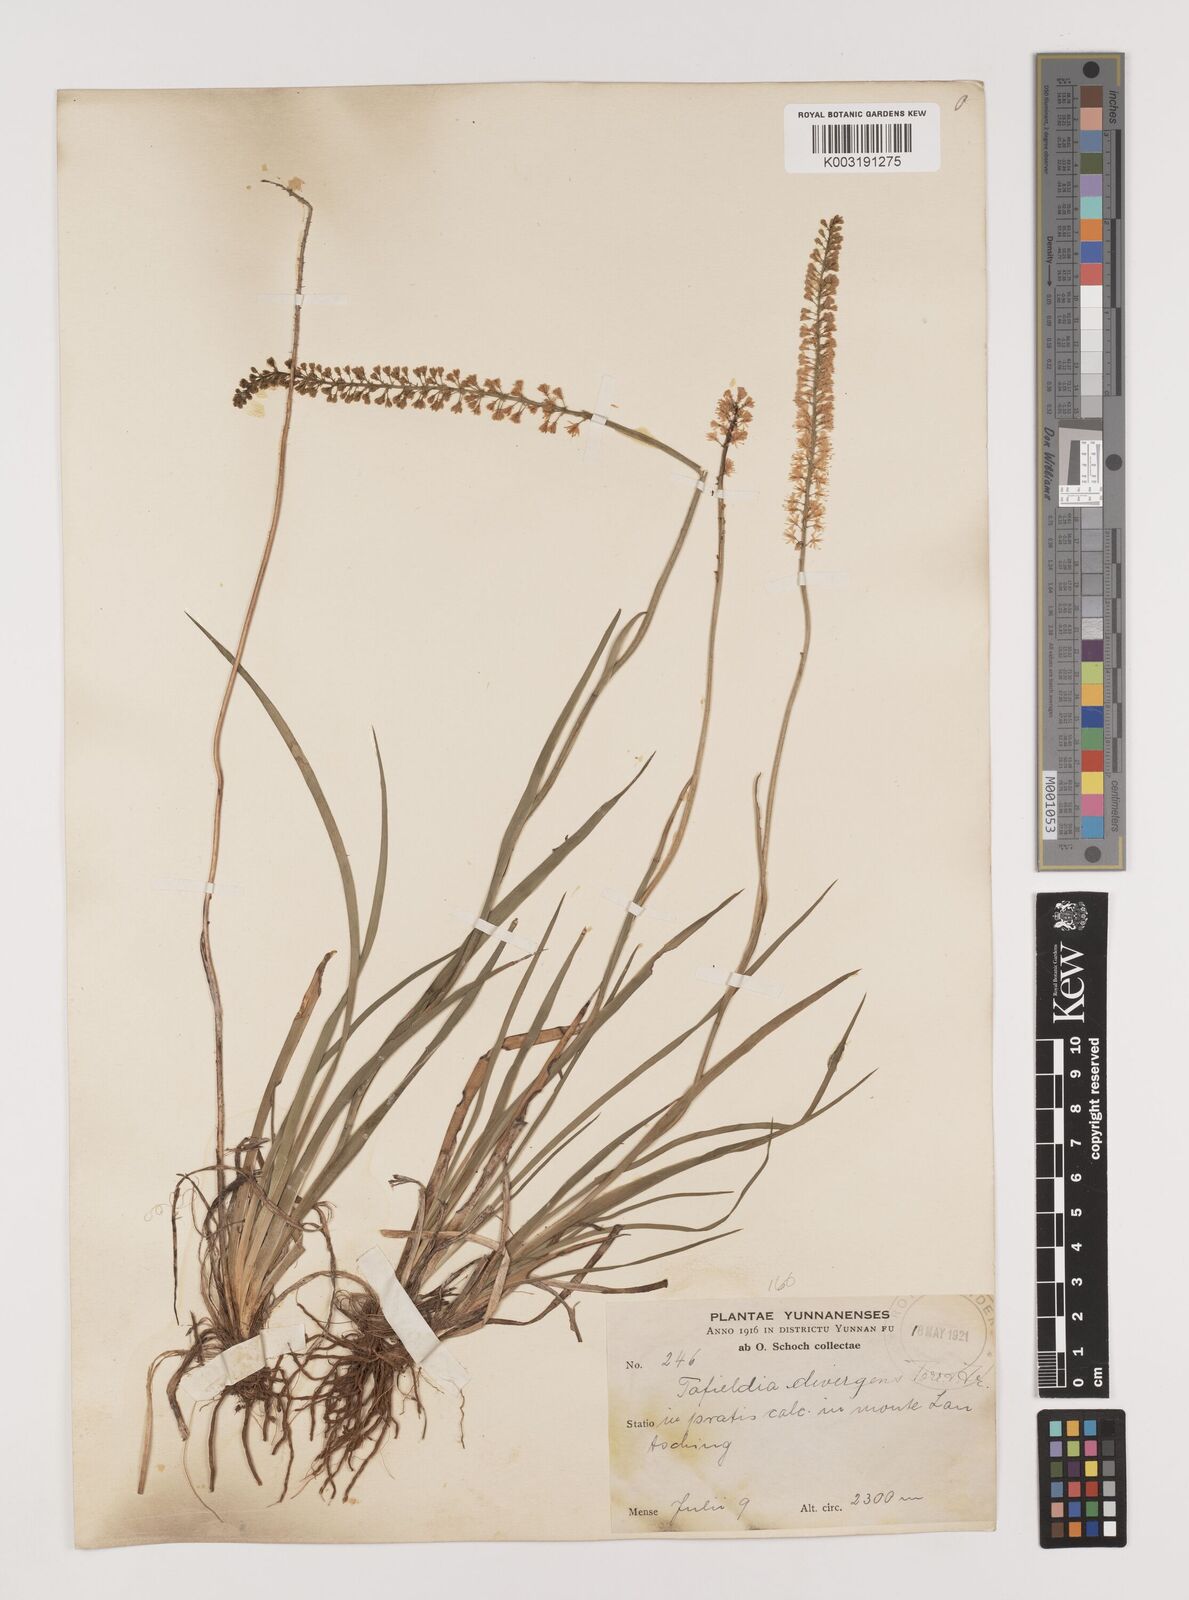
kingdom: Plantae
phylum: Tracheophyta
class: Liliopsida
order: Alismatales
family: Tofieldiaceae
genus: Tofieldia
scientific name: Tofieldia divergens
